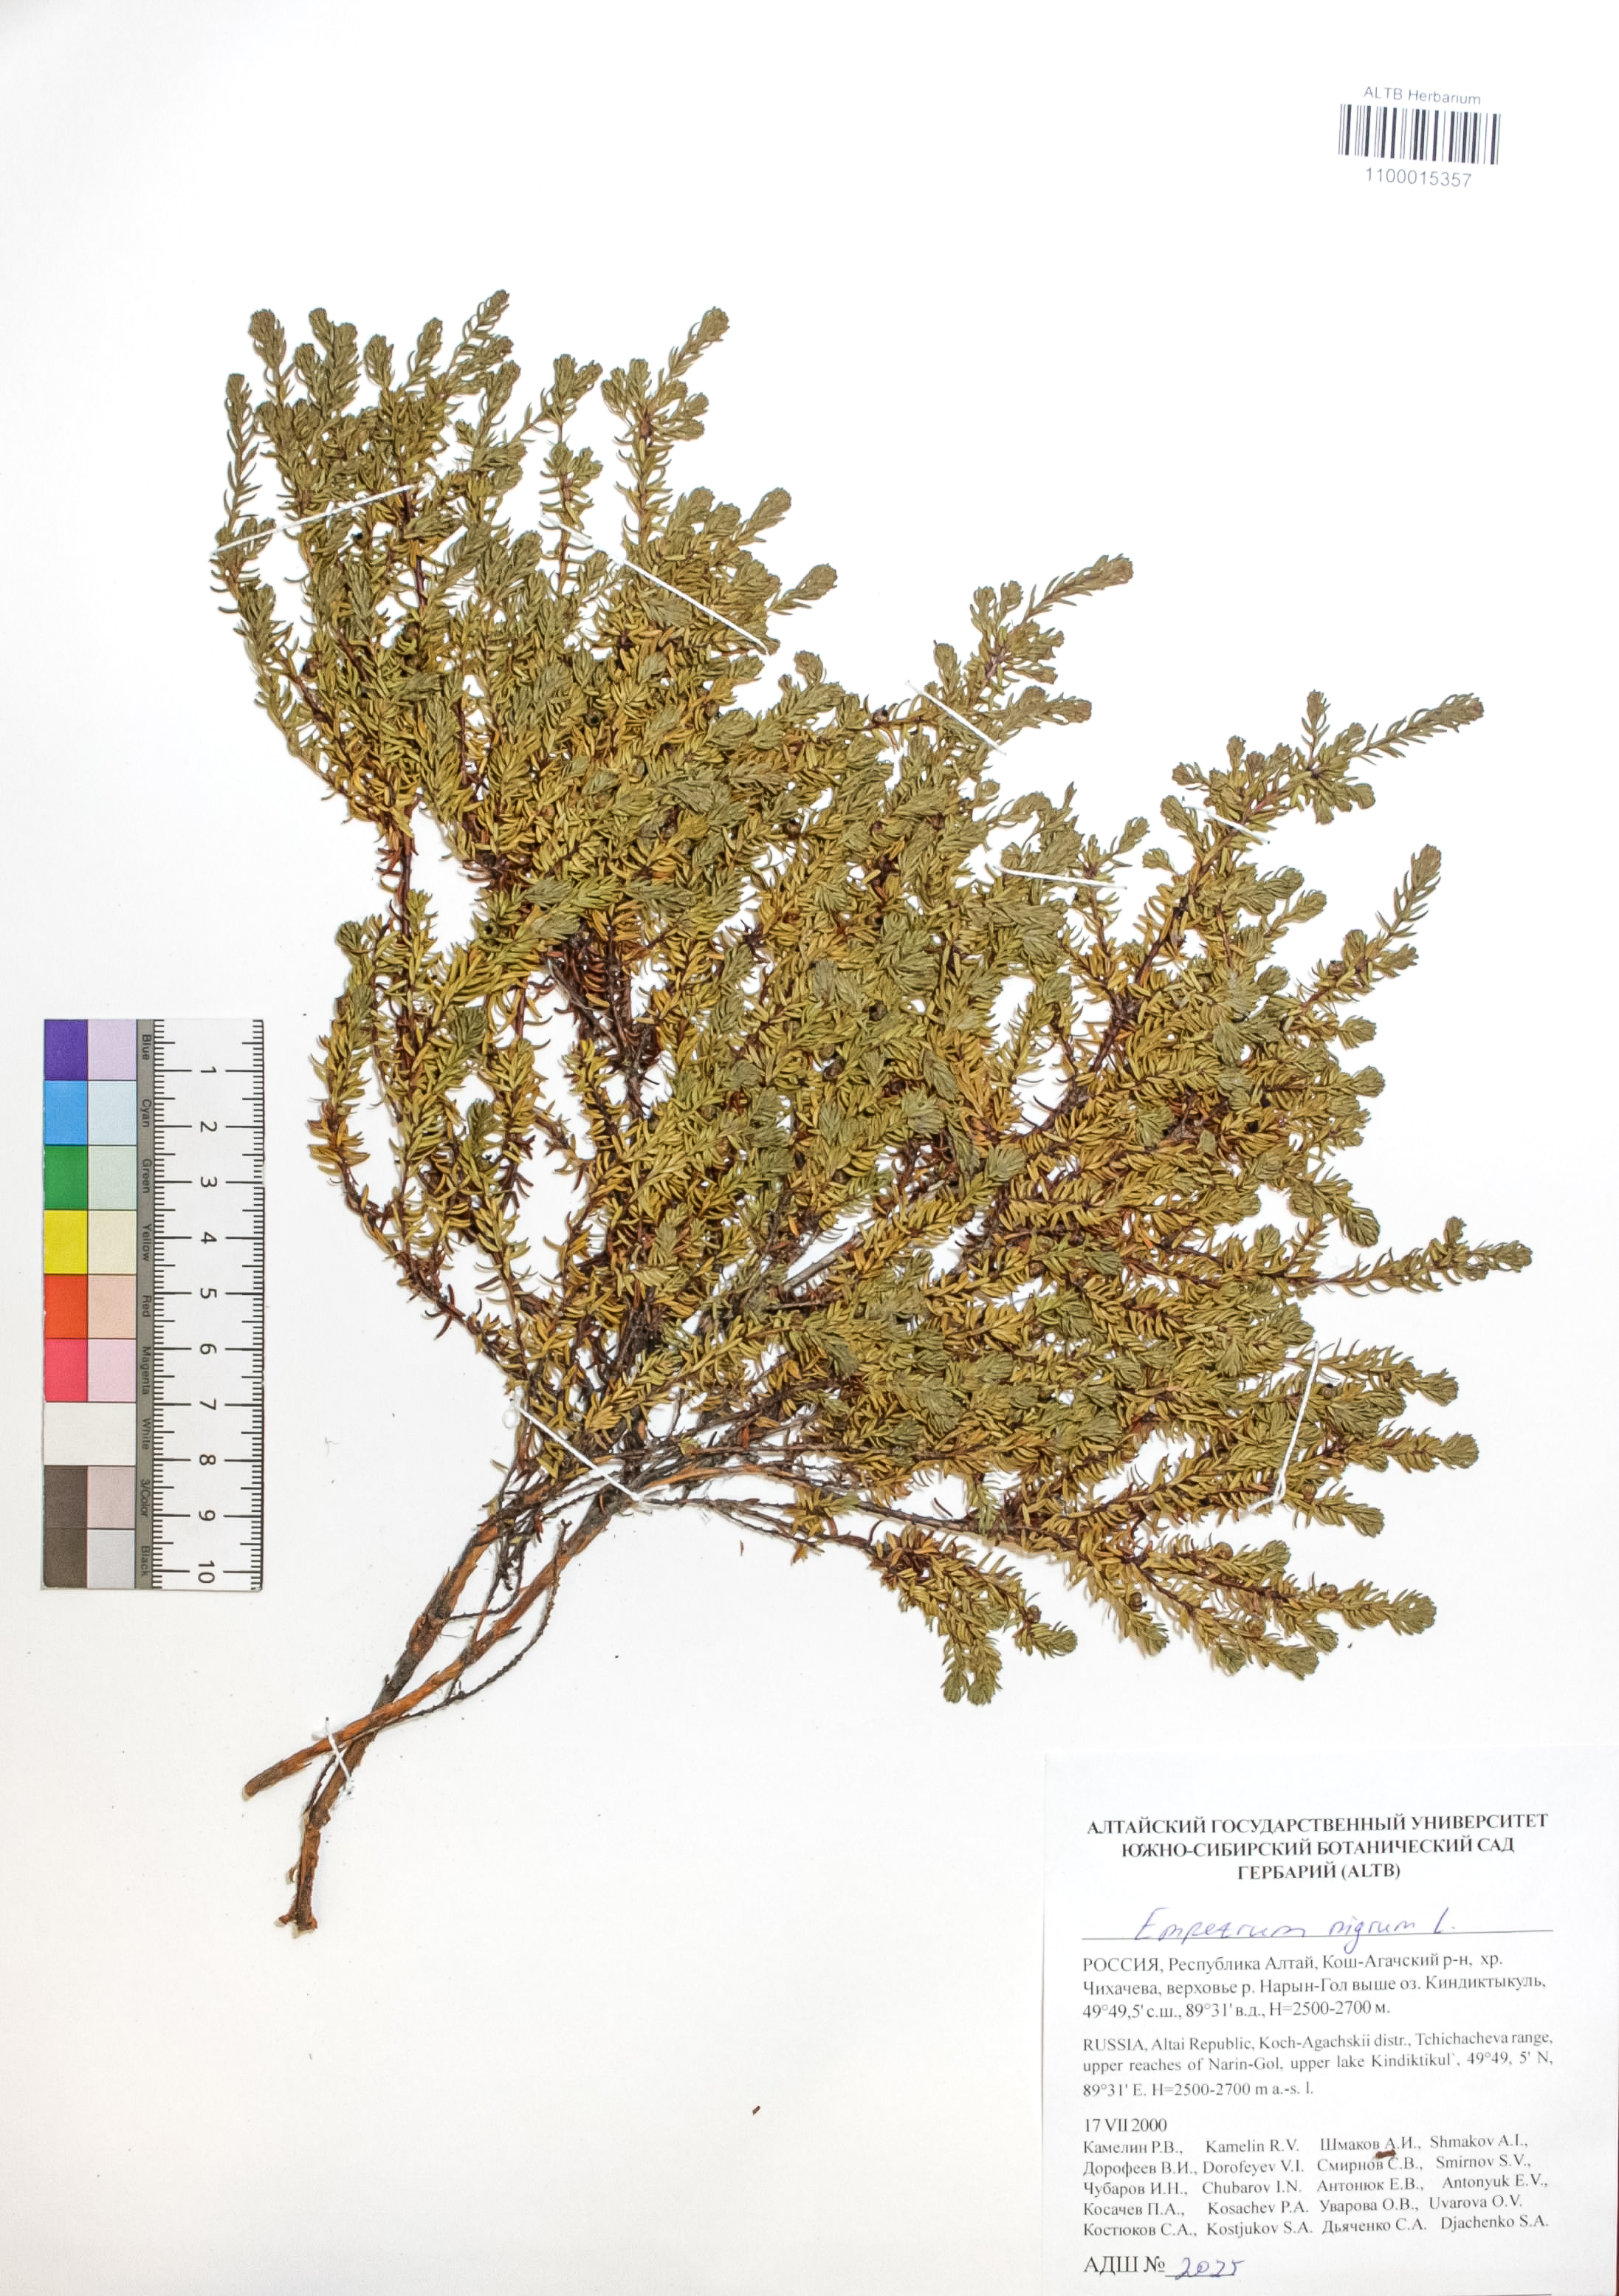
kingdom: Plantae
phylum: Tracheophyta
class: Magnoliopsida
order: Ericales
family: Ericaceae
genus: Empetrum
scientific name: Empetrum nigrum
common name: Black crowberry
